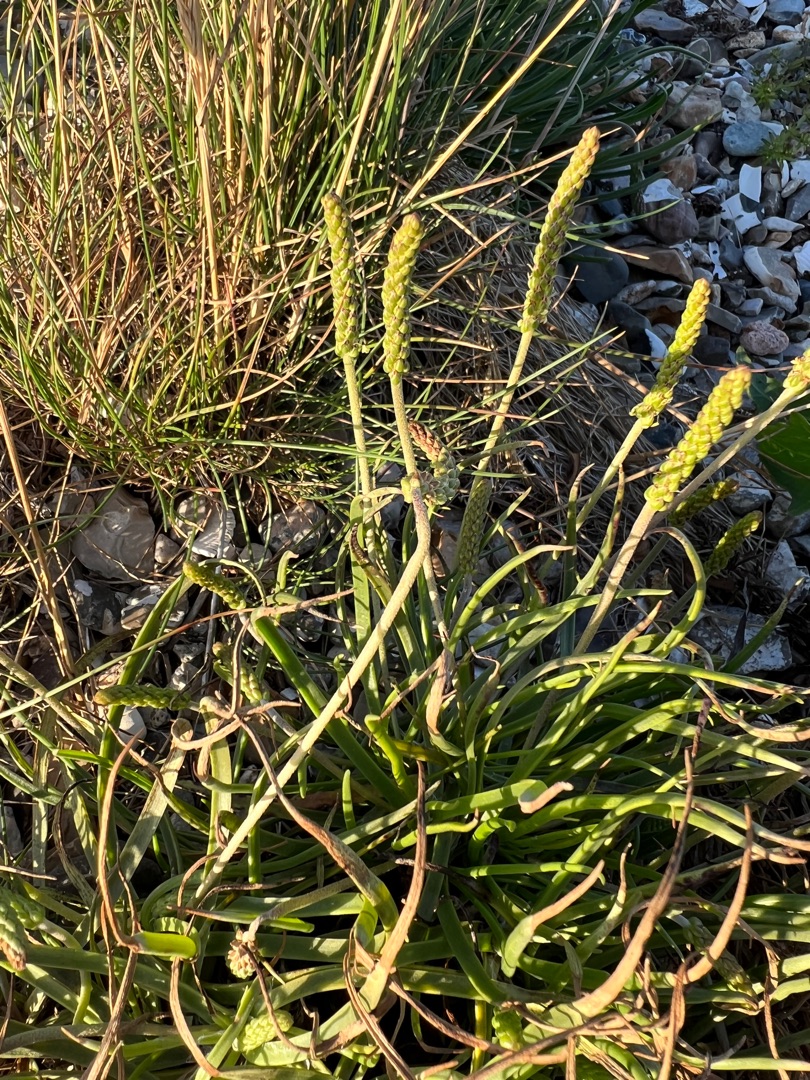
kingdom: Plantae
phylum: Tracheophyta
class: Magnoliopsida
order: Lamiales
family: Plantaginaceae
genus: Plantago
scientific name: Plantago maritima
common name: Strand-vejbred
